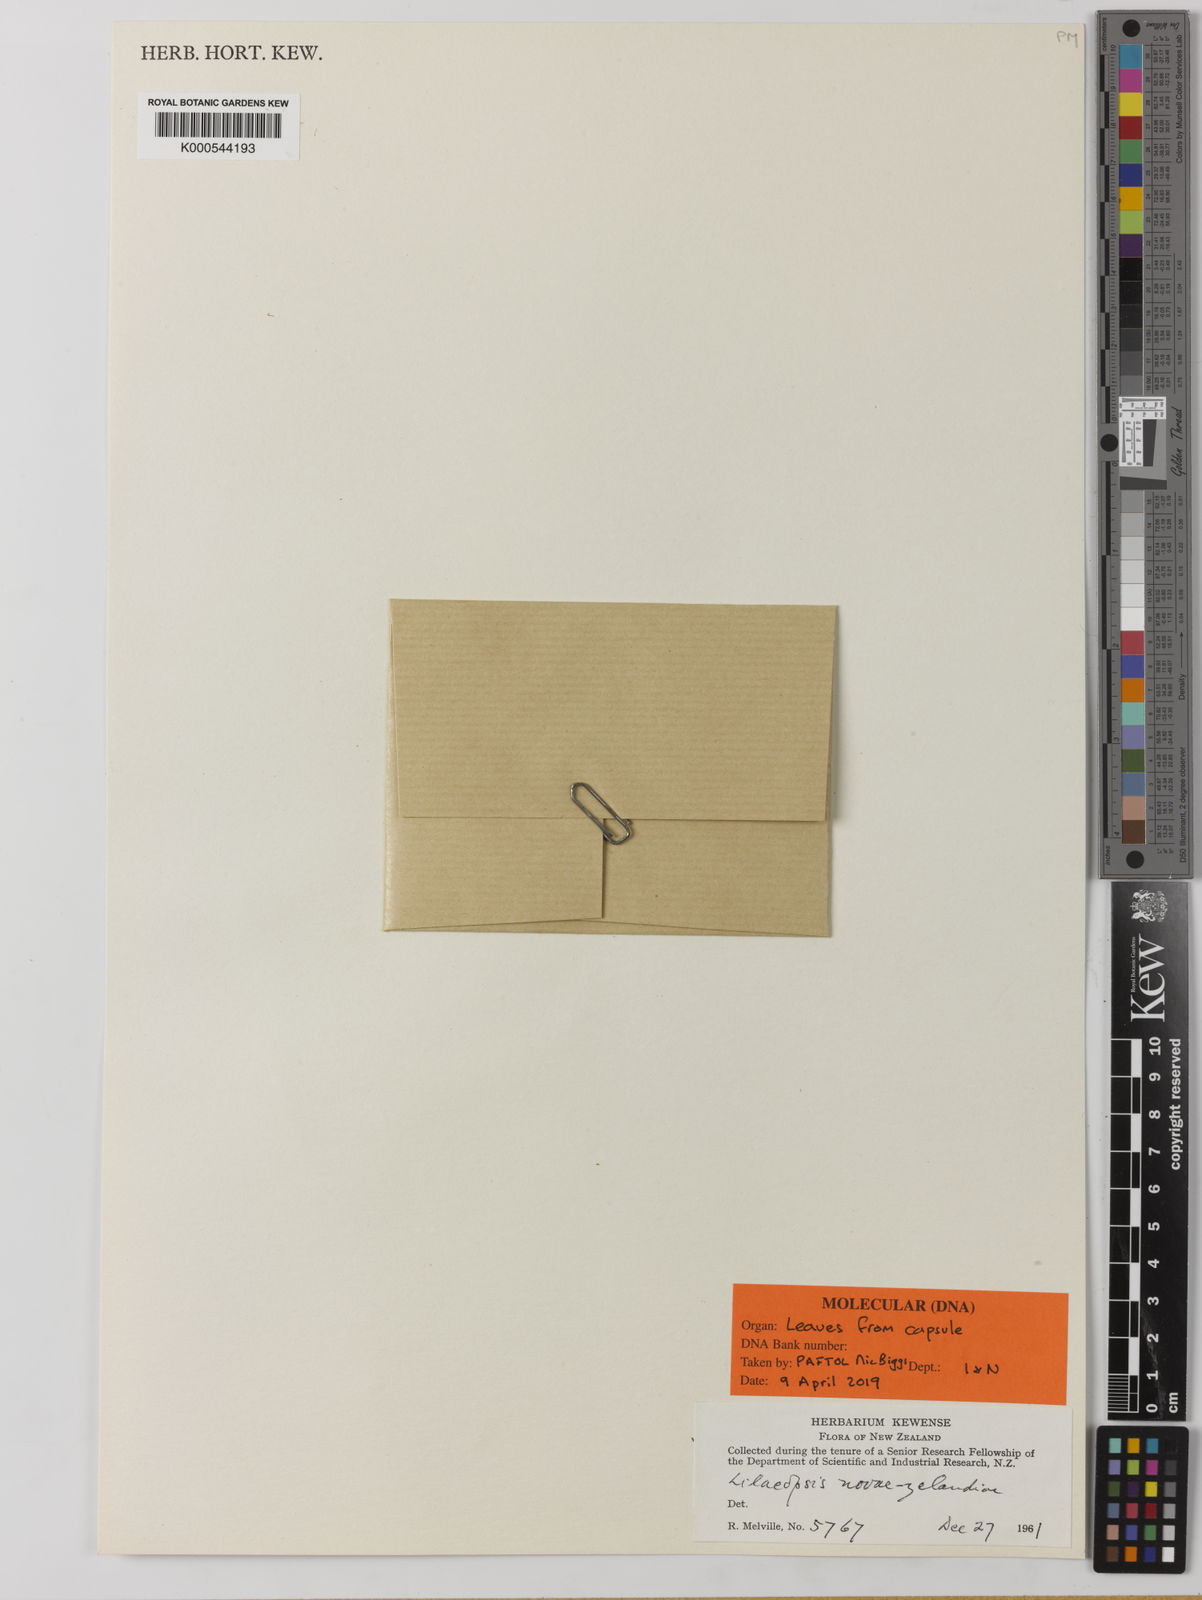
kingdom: Plantae
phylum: Tracheophyta
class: Magnoliopsida
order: Apiales
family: Apiaceae
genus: Lilaeopsis
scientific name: Lilaeopsis novae-zelandiae
